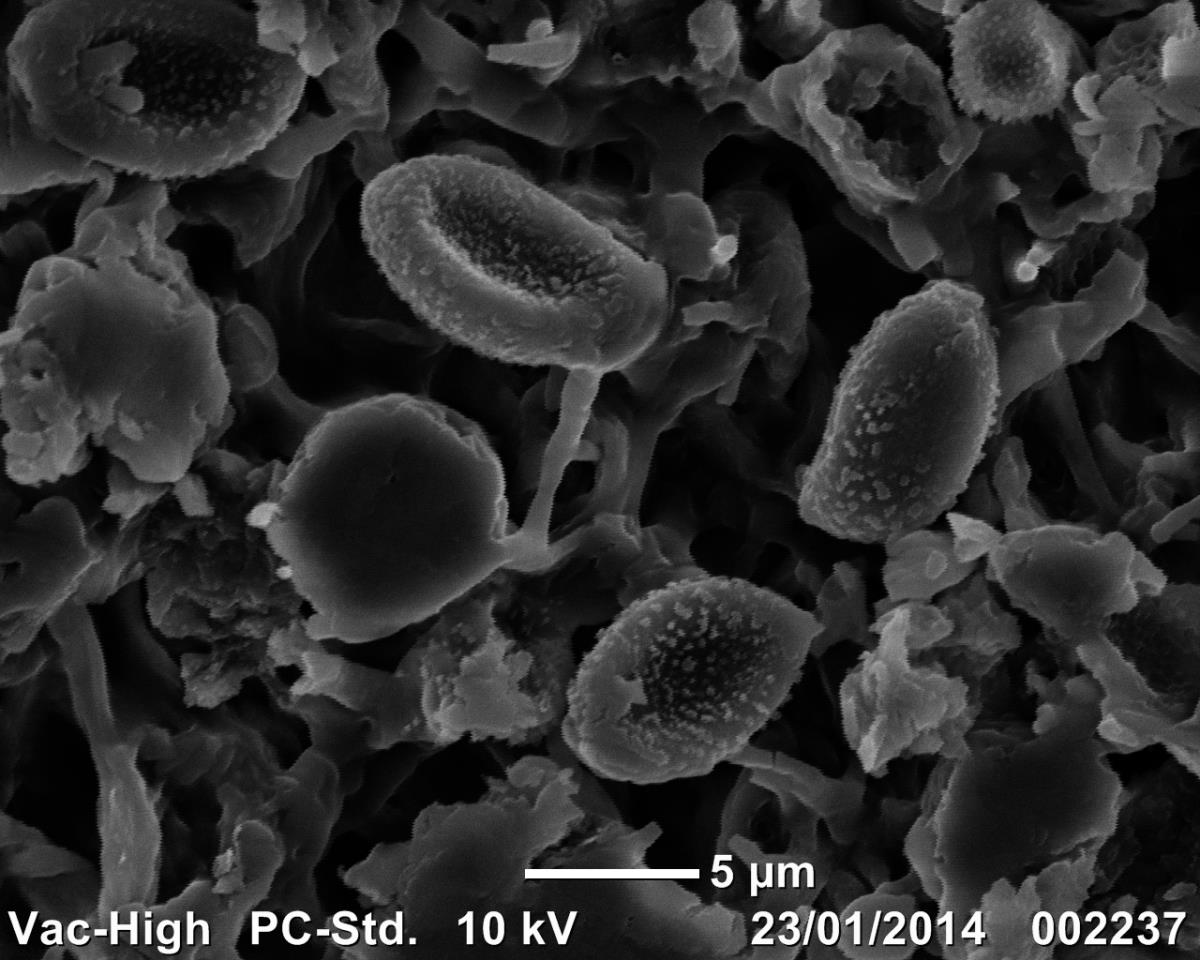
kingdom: Fungi
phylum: Basidiomycota
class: Agaricomycetes
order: Agaricales
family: Cortinariaceae
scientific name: Cortinariaceae
